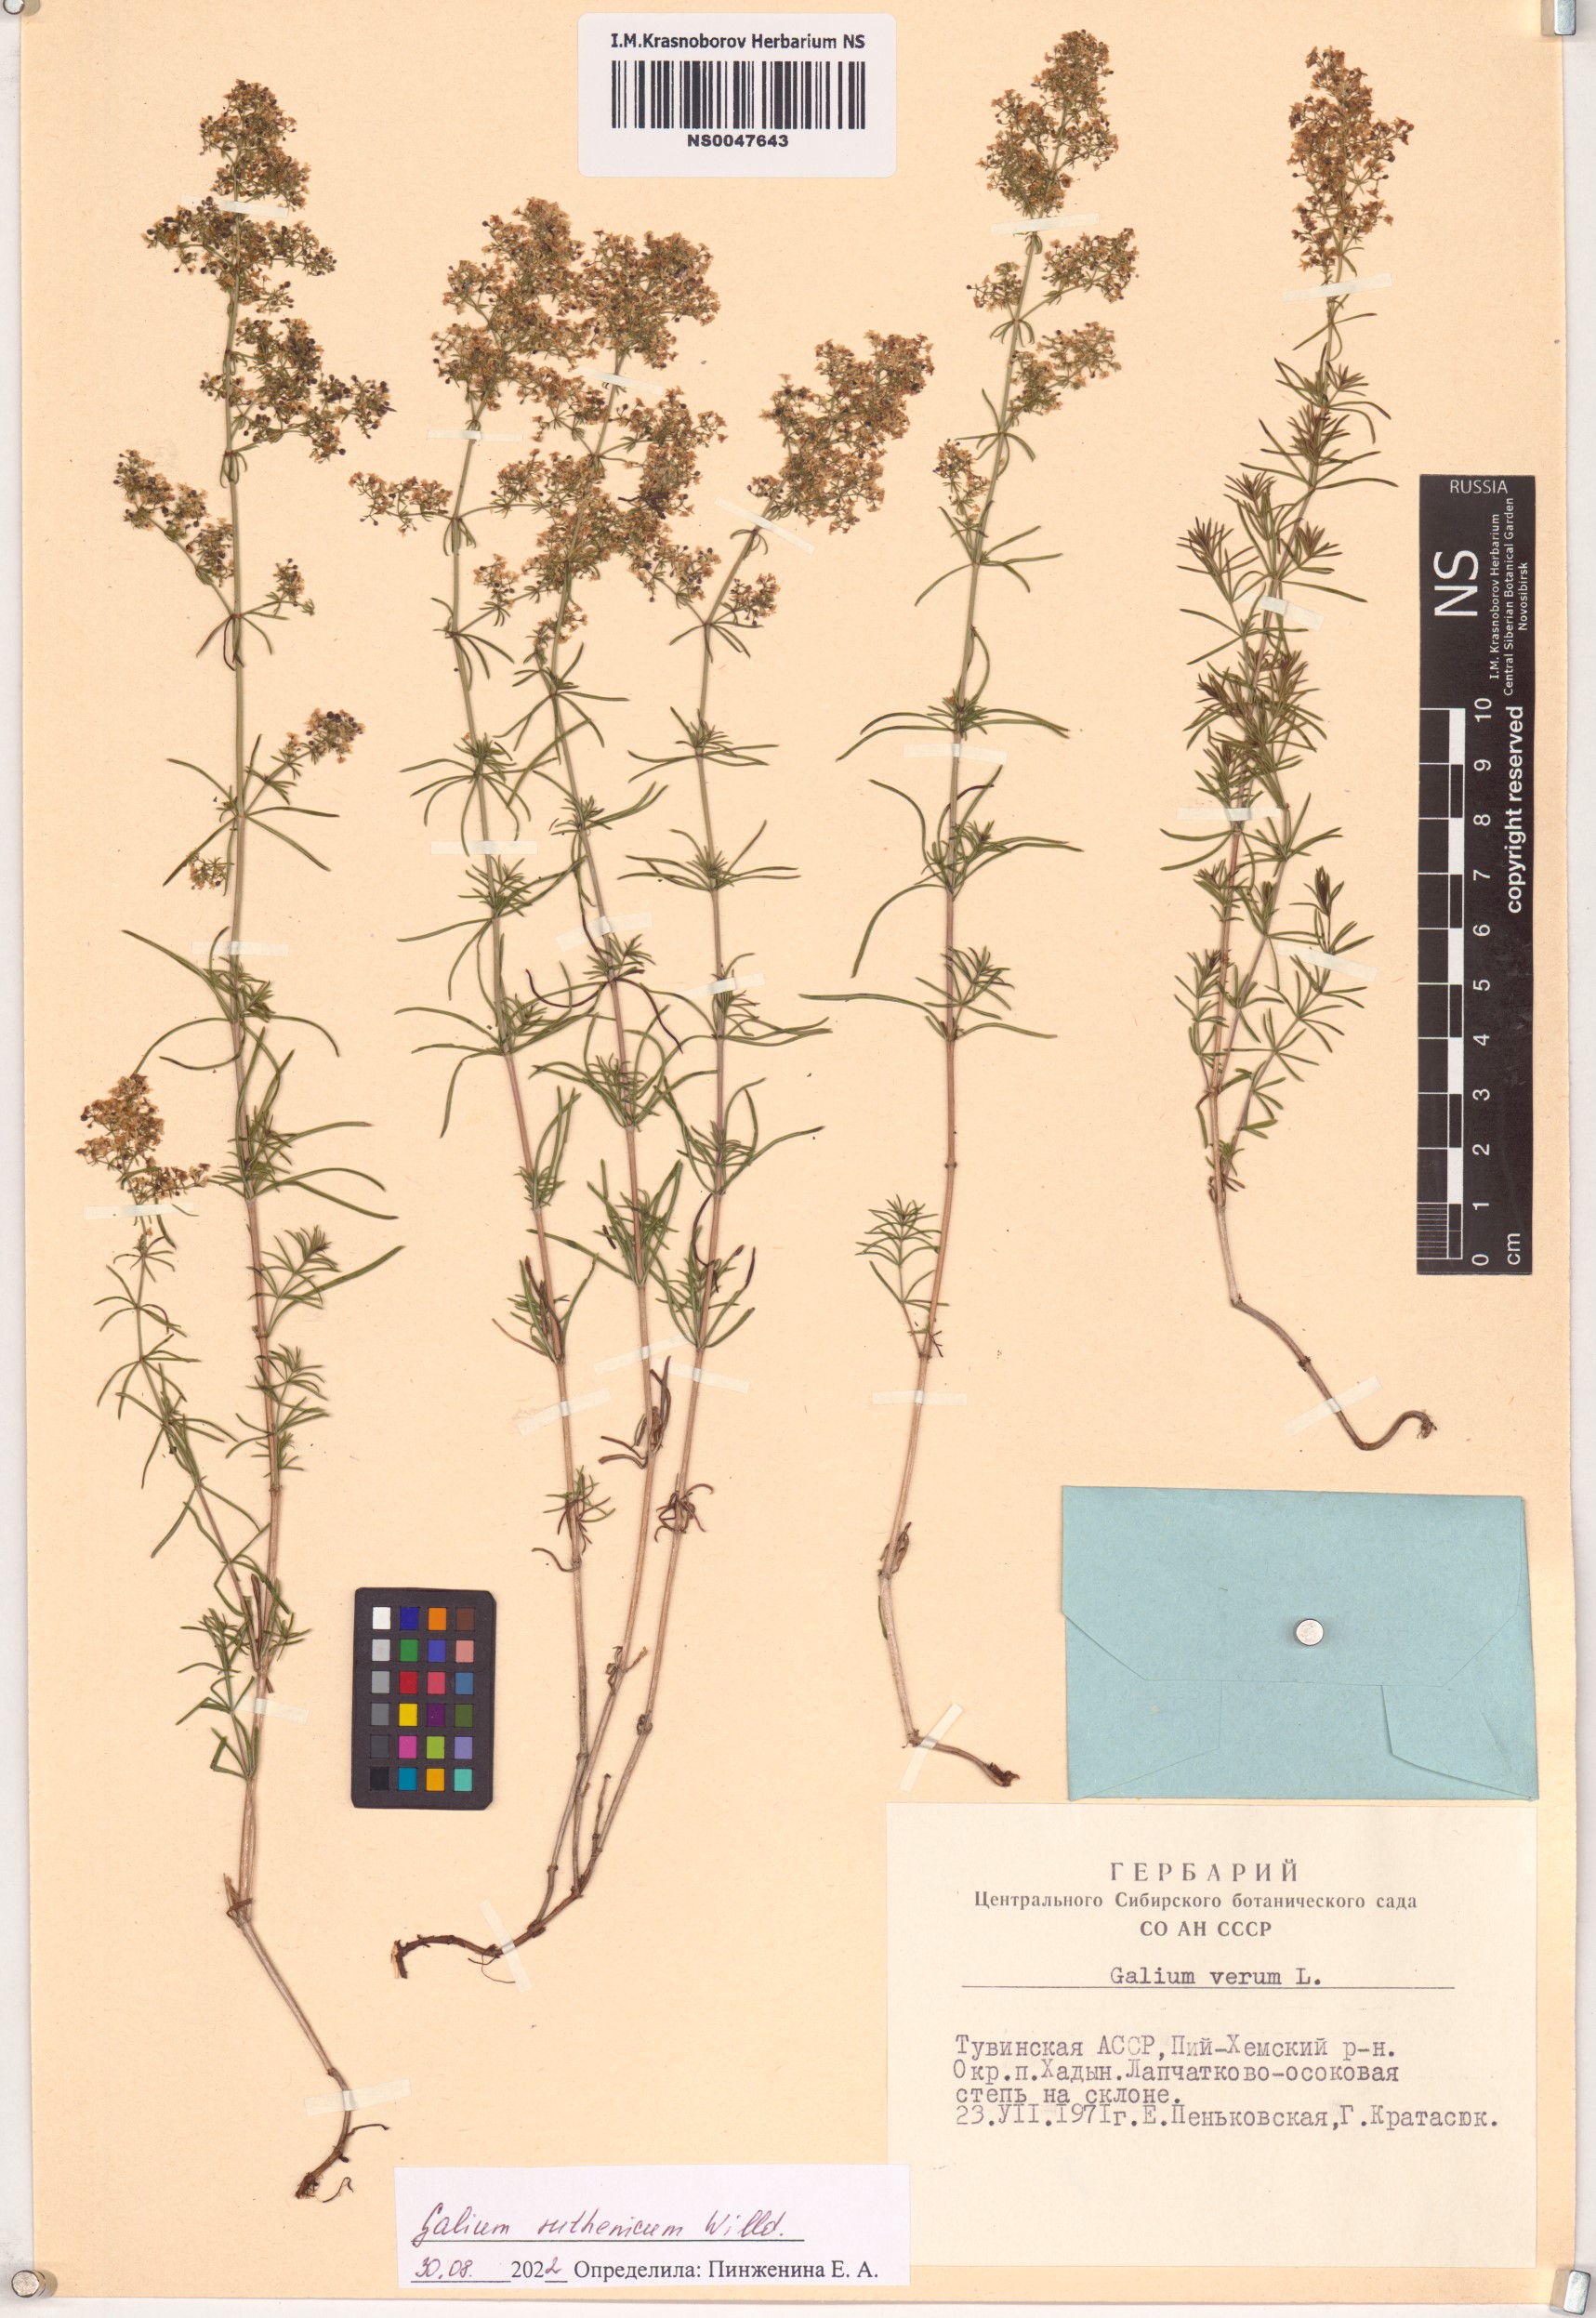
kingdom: Plantae
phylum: Tracheophyta
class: Magnoliopsida
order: Gentianales
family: Rubiaceae
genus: Galium
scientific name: Galium verum
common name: Lady's bedstraw
